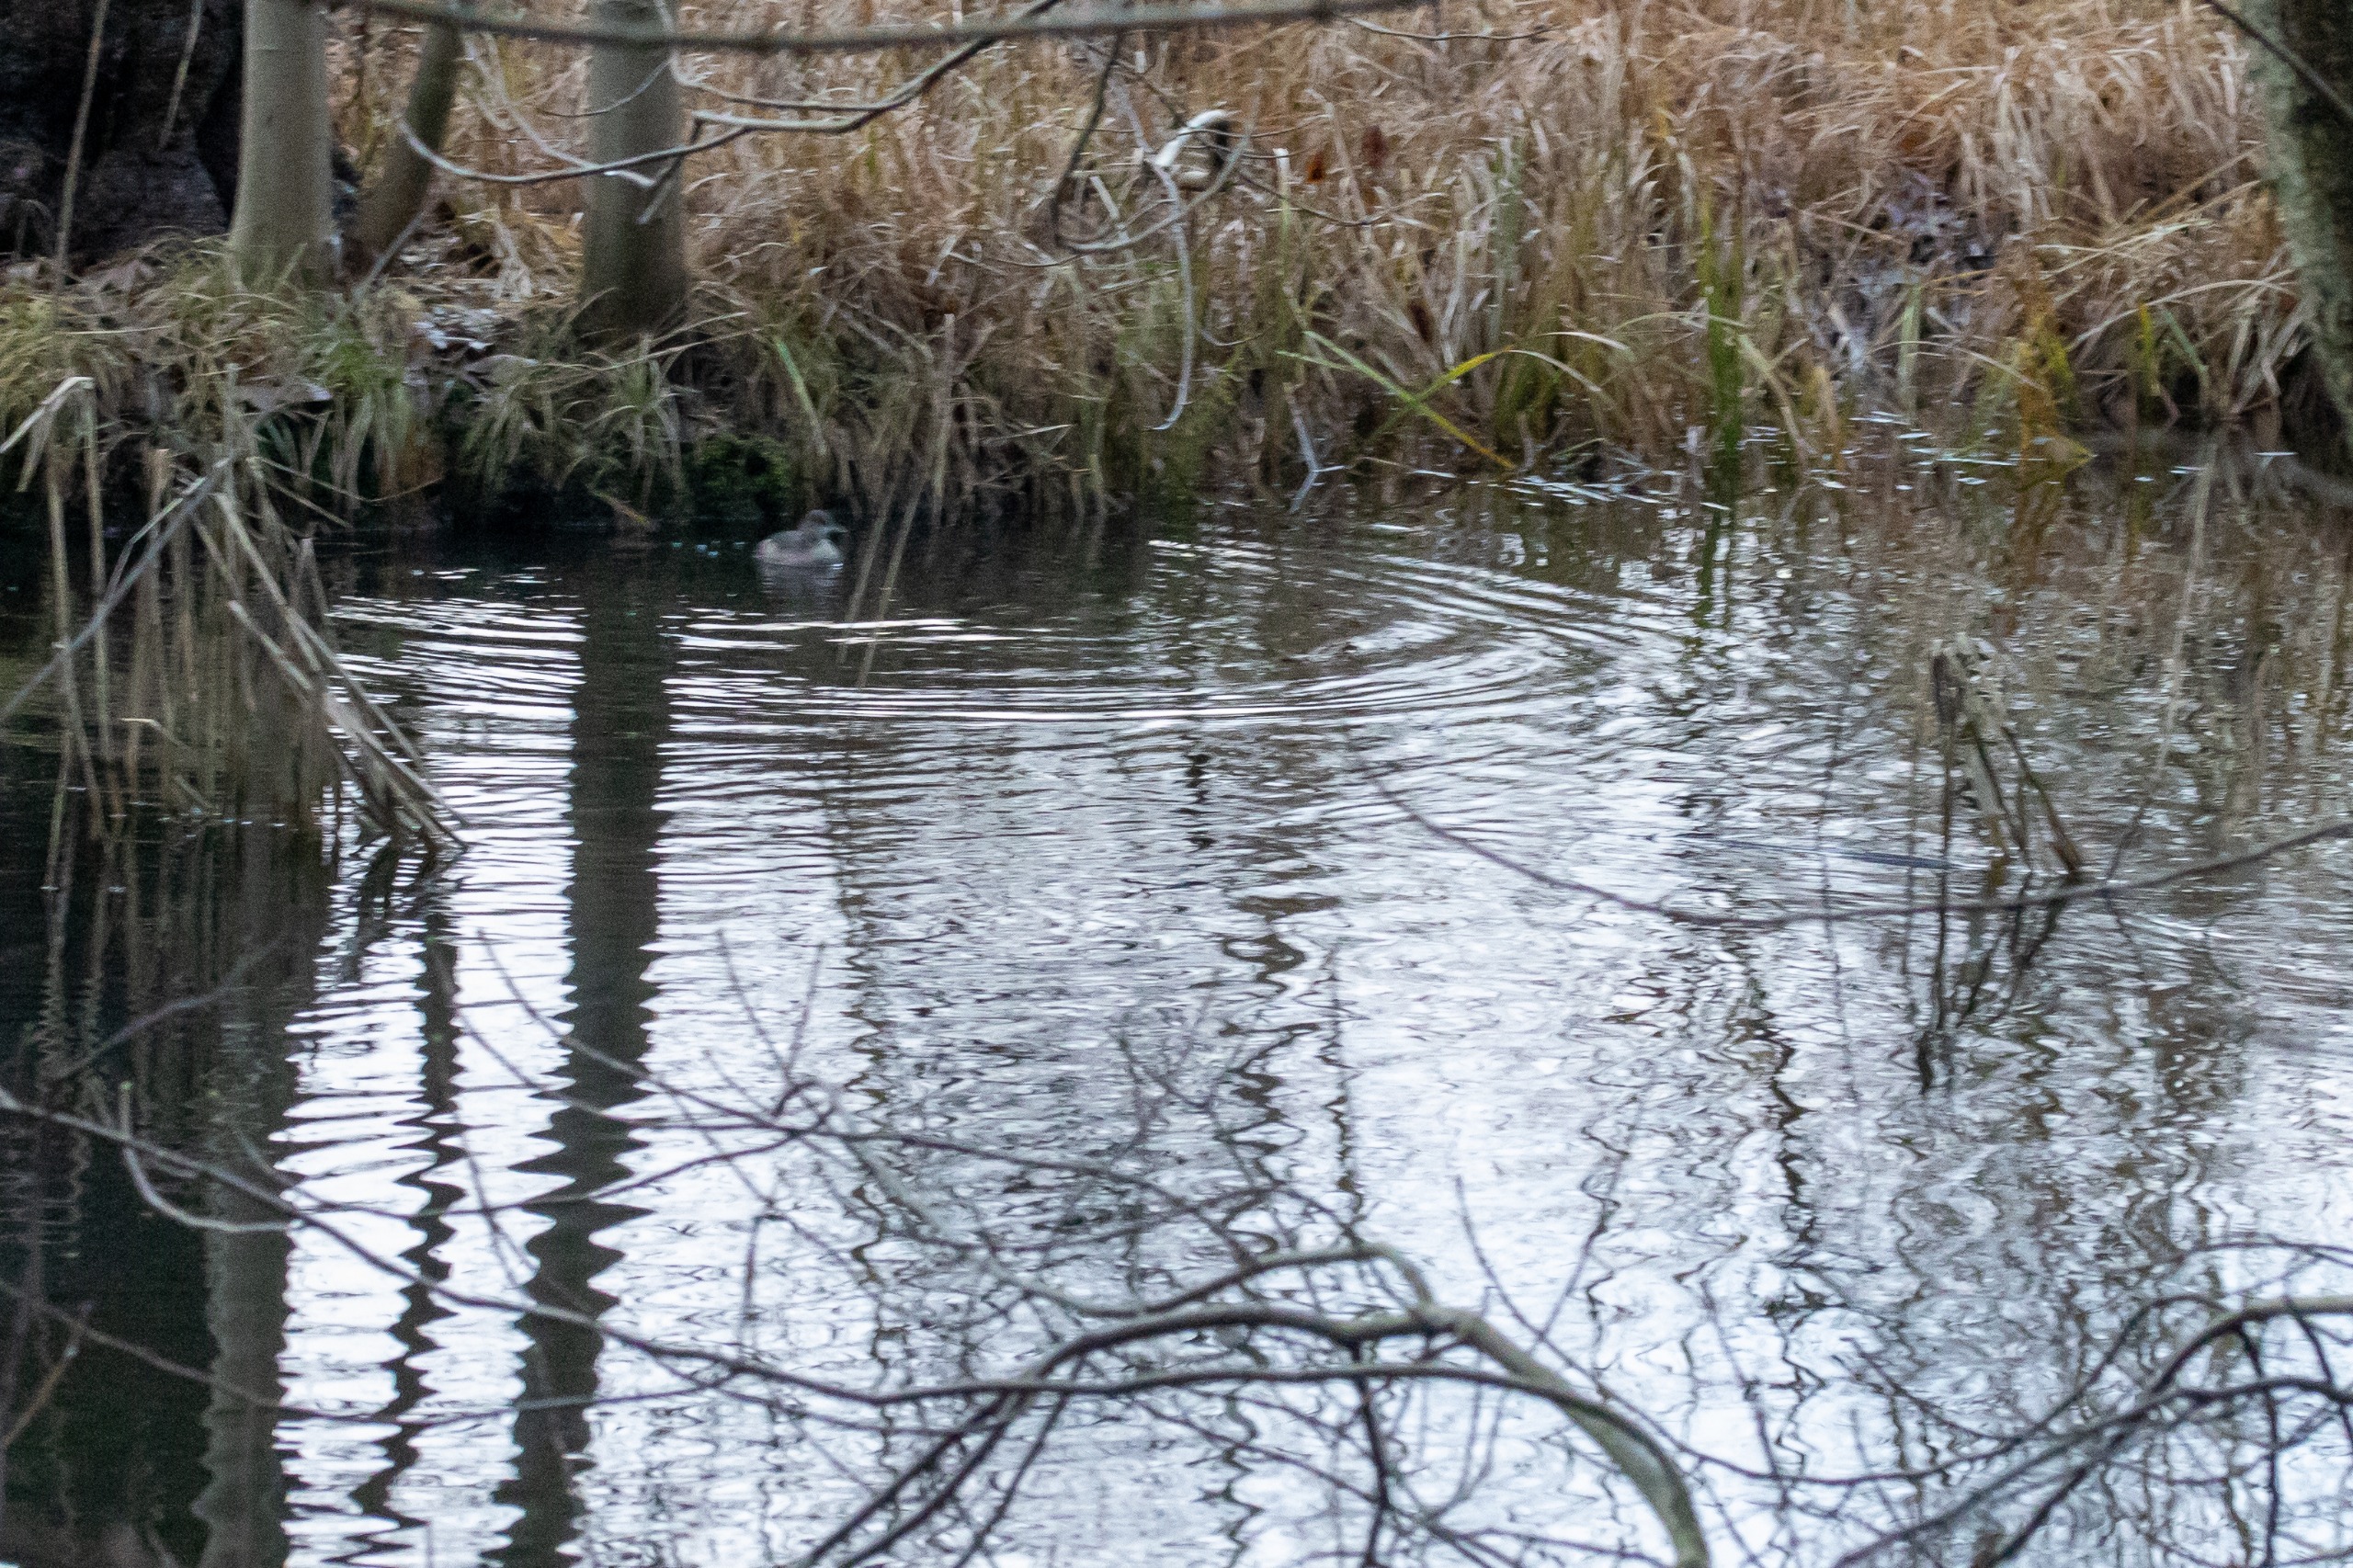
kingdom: Animalia
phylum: Chordata
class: Aves
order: Podicipediformes
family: Podicipedidae
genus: Tachybaptus
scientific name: Tachybaptus ruficollis
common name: Lille lappedykker
